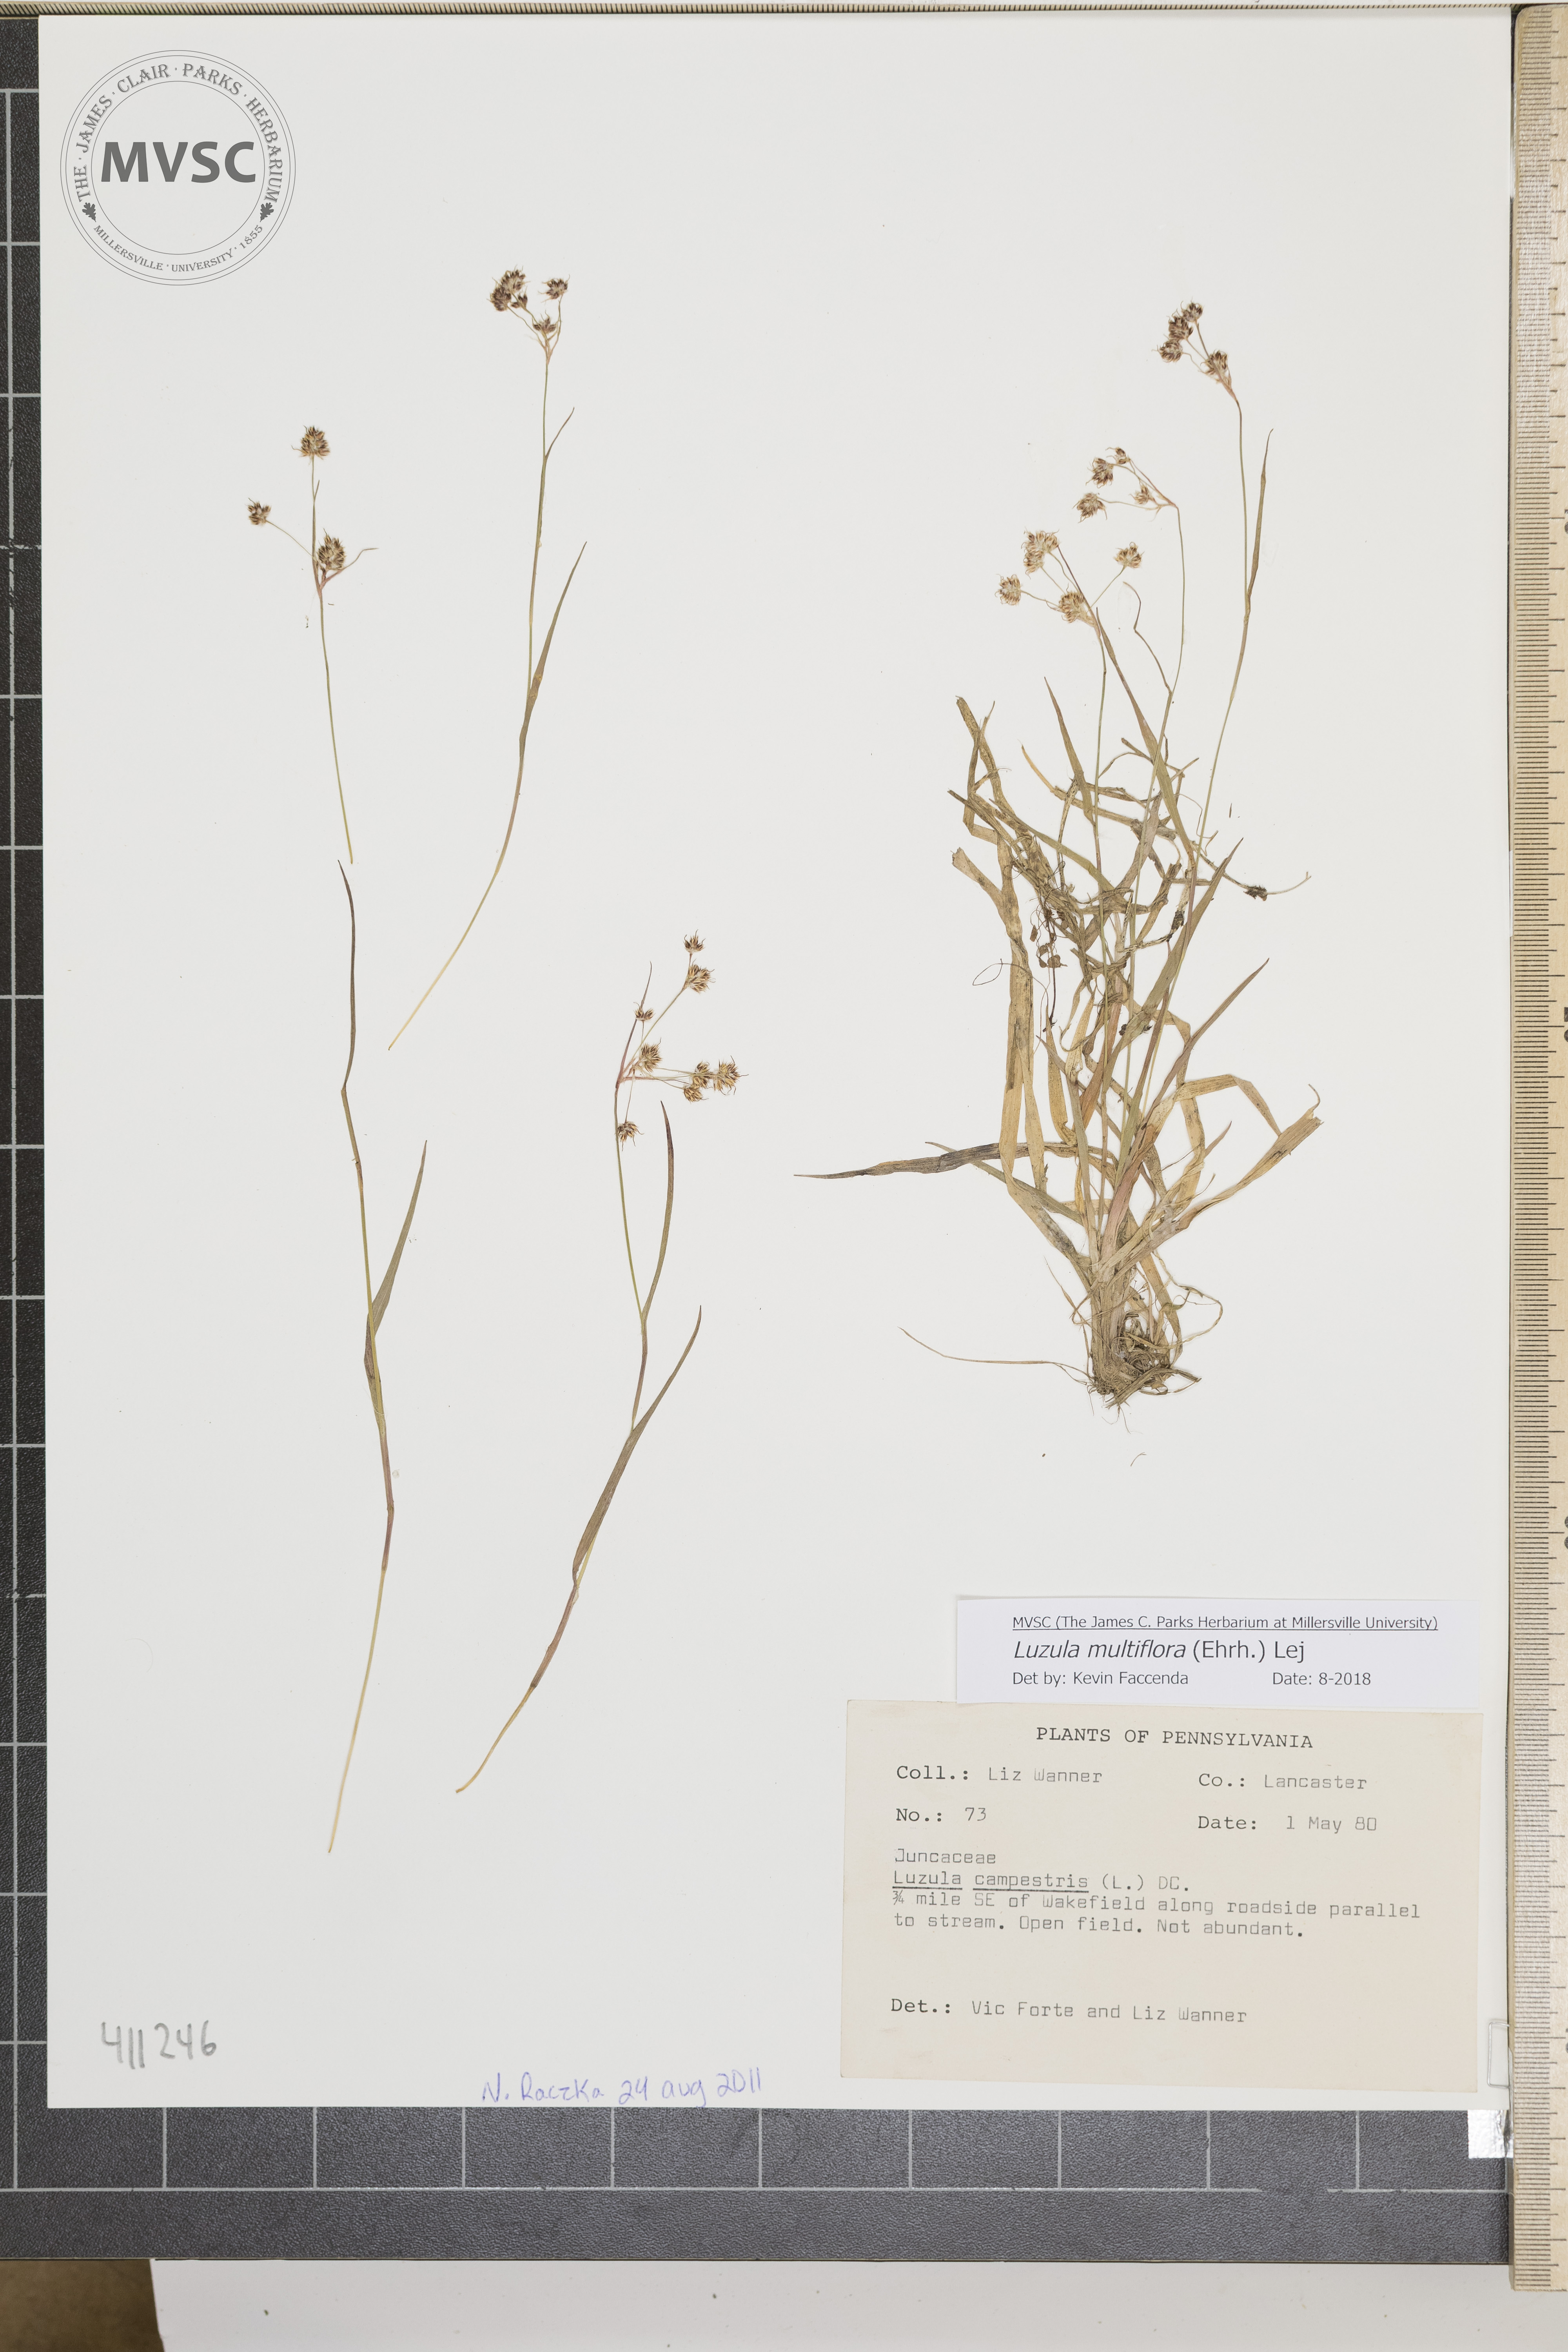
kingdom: Plantae
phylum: Tracheophyta
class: Liliopsida
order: Poales
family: Juncaceae
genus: Luzula
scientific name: Luzula multiflora
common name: Heath wood-rush
